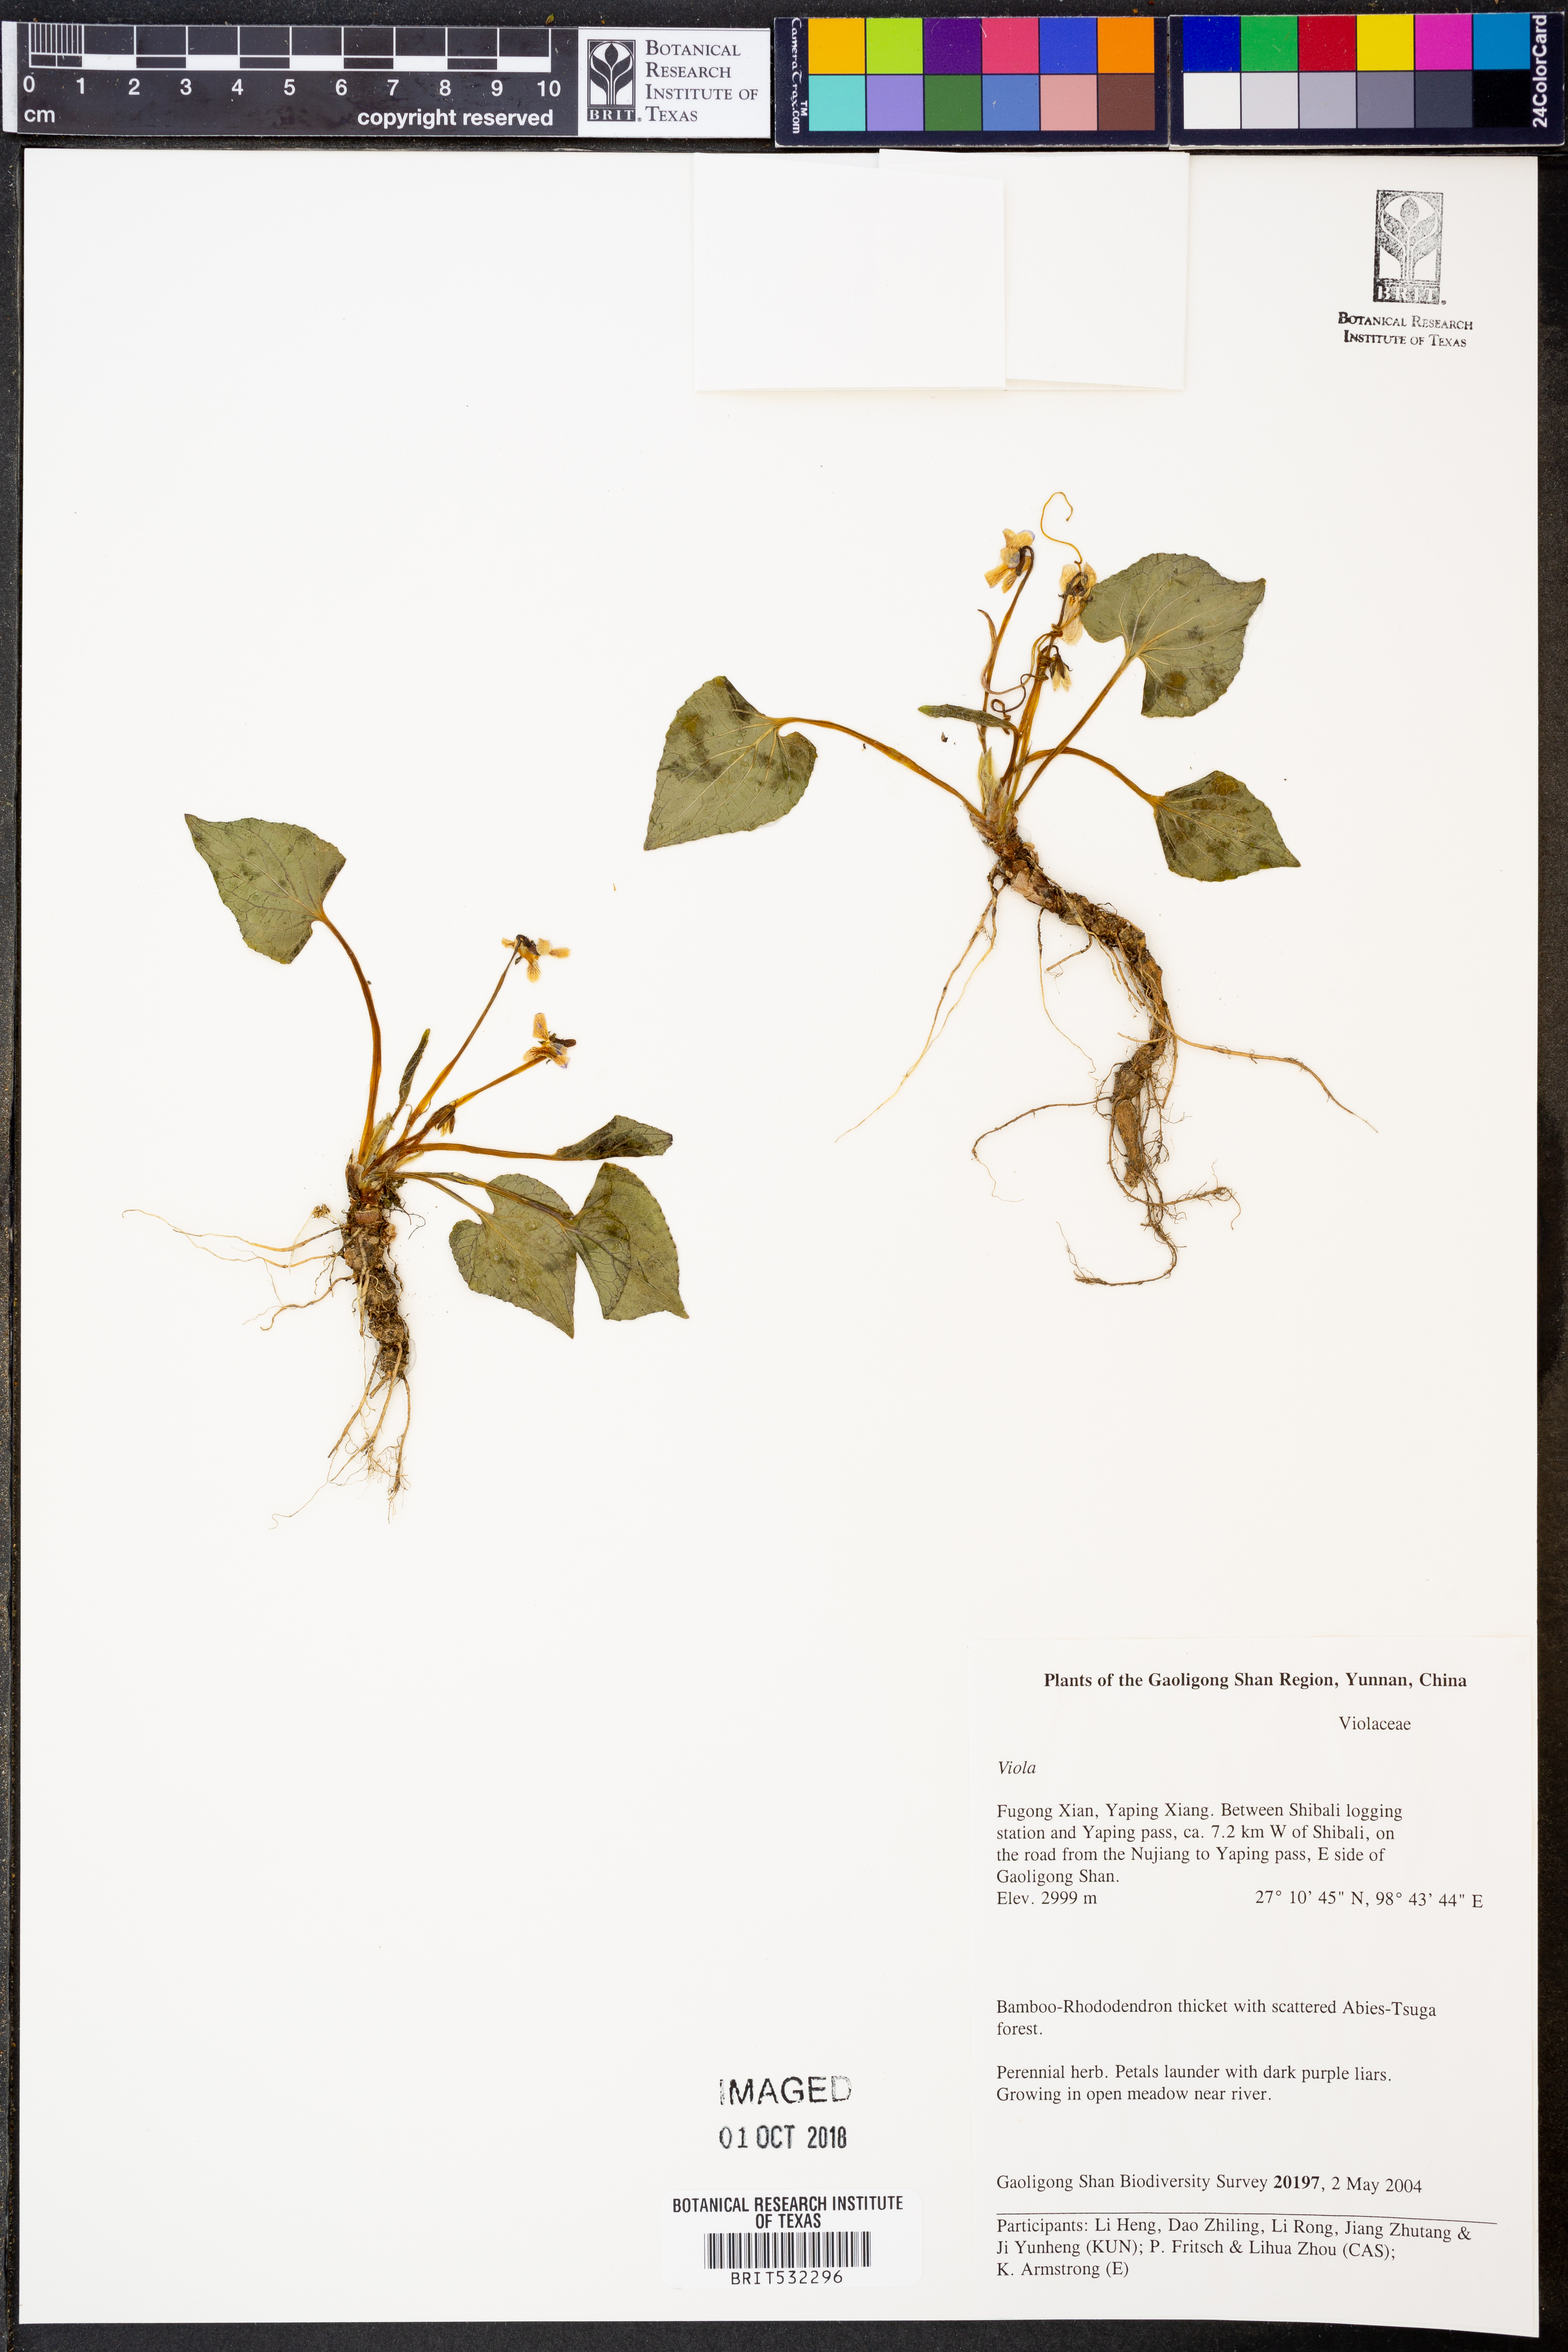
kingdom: Plantae
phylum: Tracheophyta
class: Magnoliopsida
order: Malpighiales
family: Violaceae
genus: Viola
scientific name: Viola
